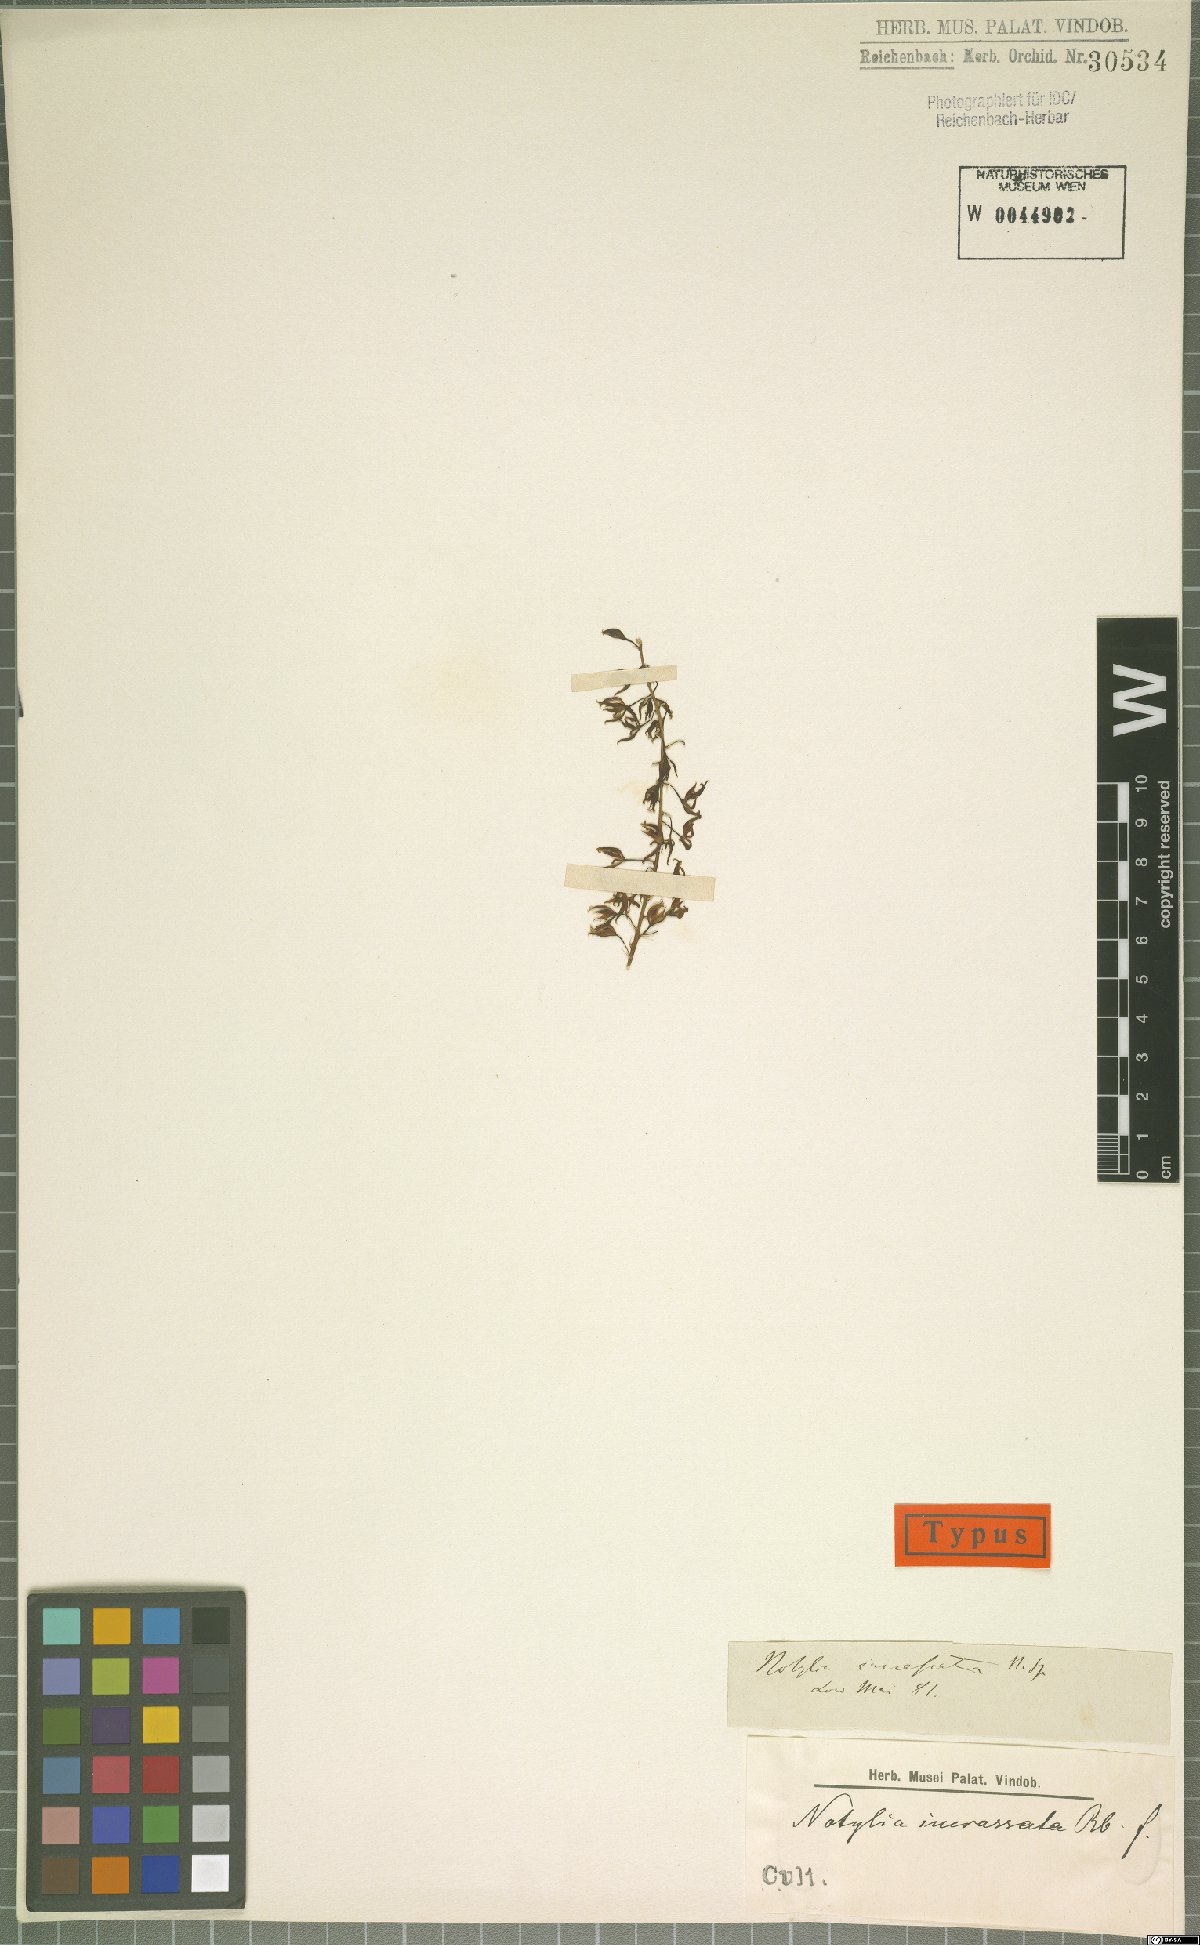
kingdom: Plantae
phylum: Tracheophyta
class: Liliopsida
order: Asparagales
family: Orchidaceae
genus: Notylia
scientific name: Notylia
